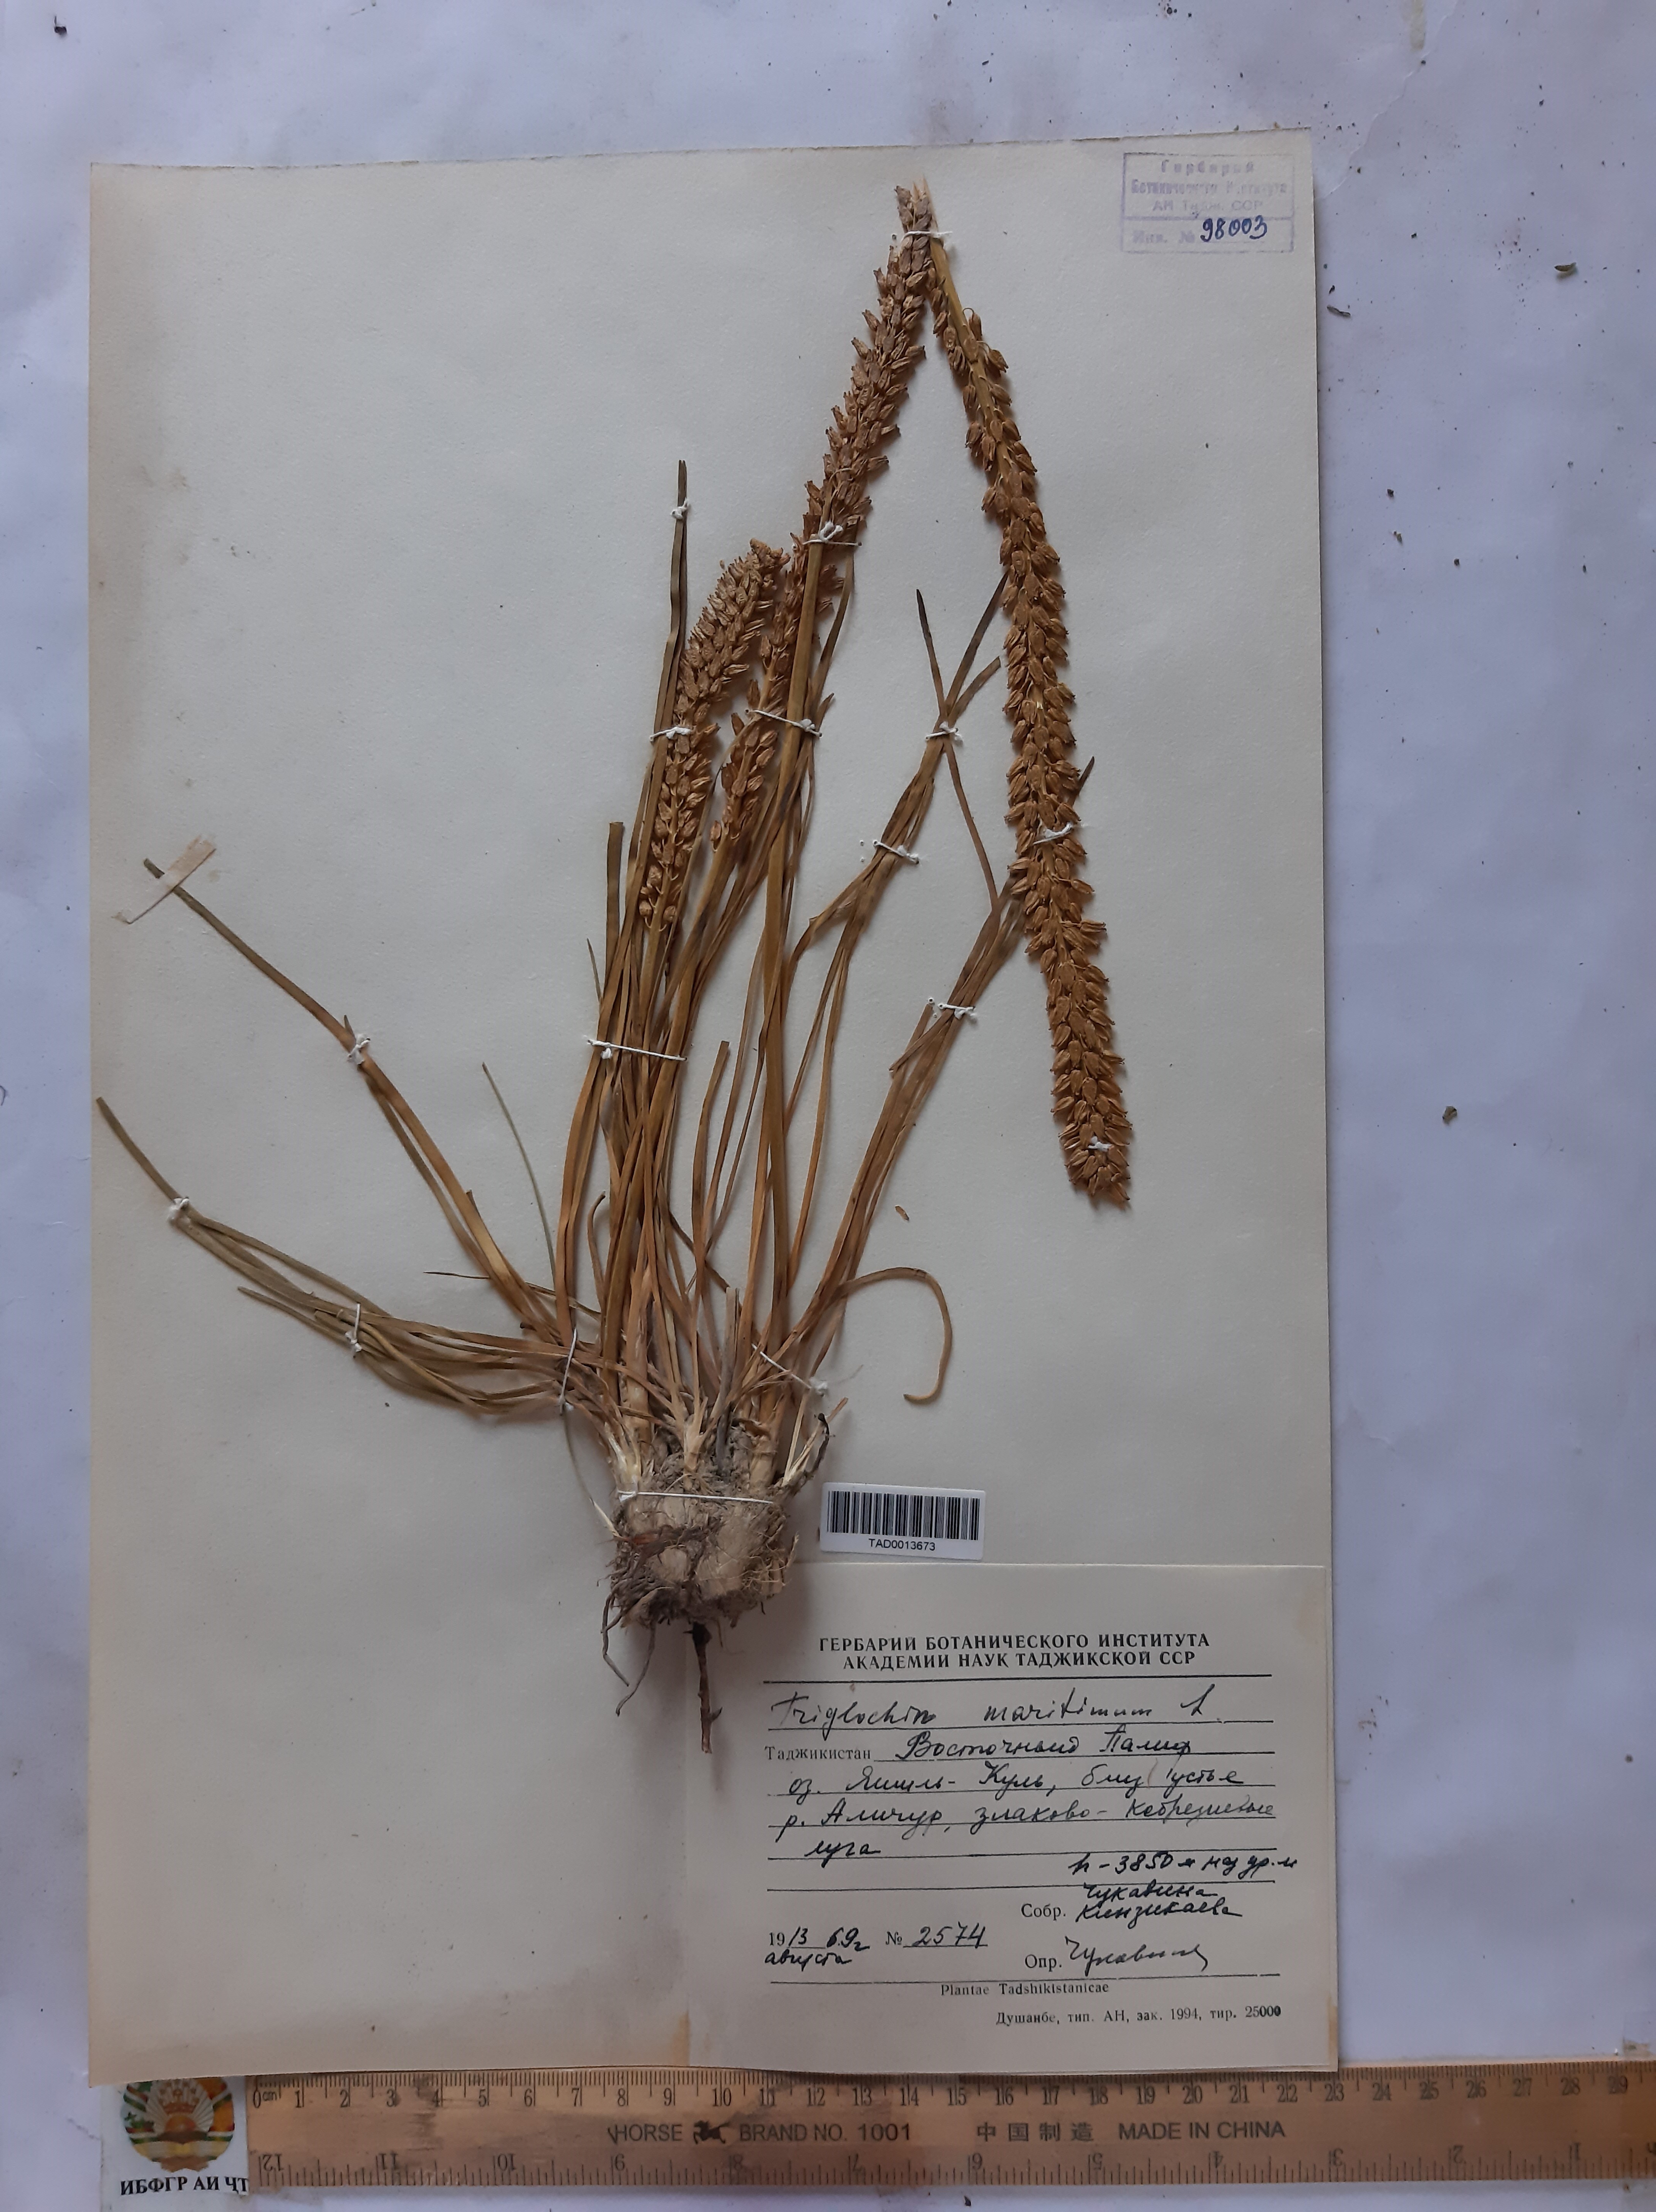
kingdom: Plantae
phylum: Tracheophyta
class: Liliopsida
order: Alismatales
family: Juncaginaceae
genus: Triglochin
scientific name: Triglochin maritima
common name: Sea arrowgrass
